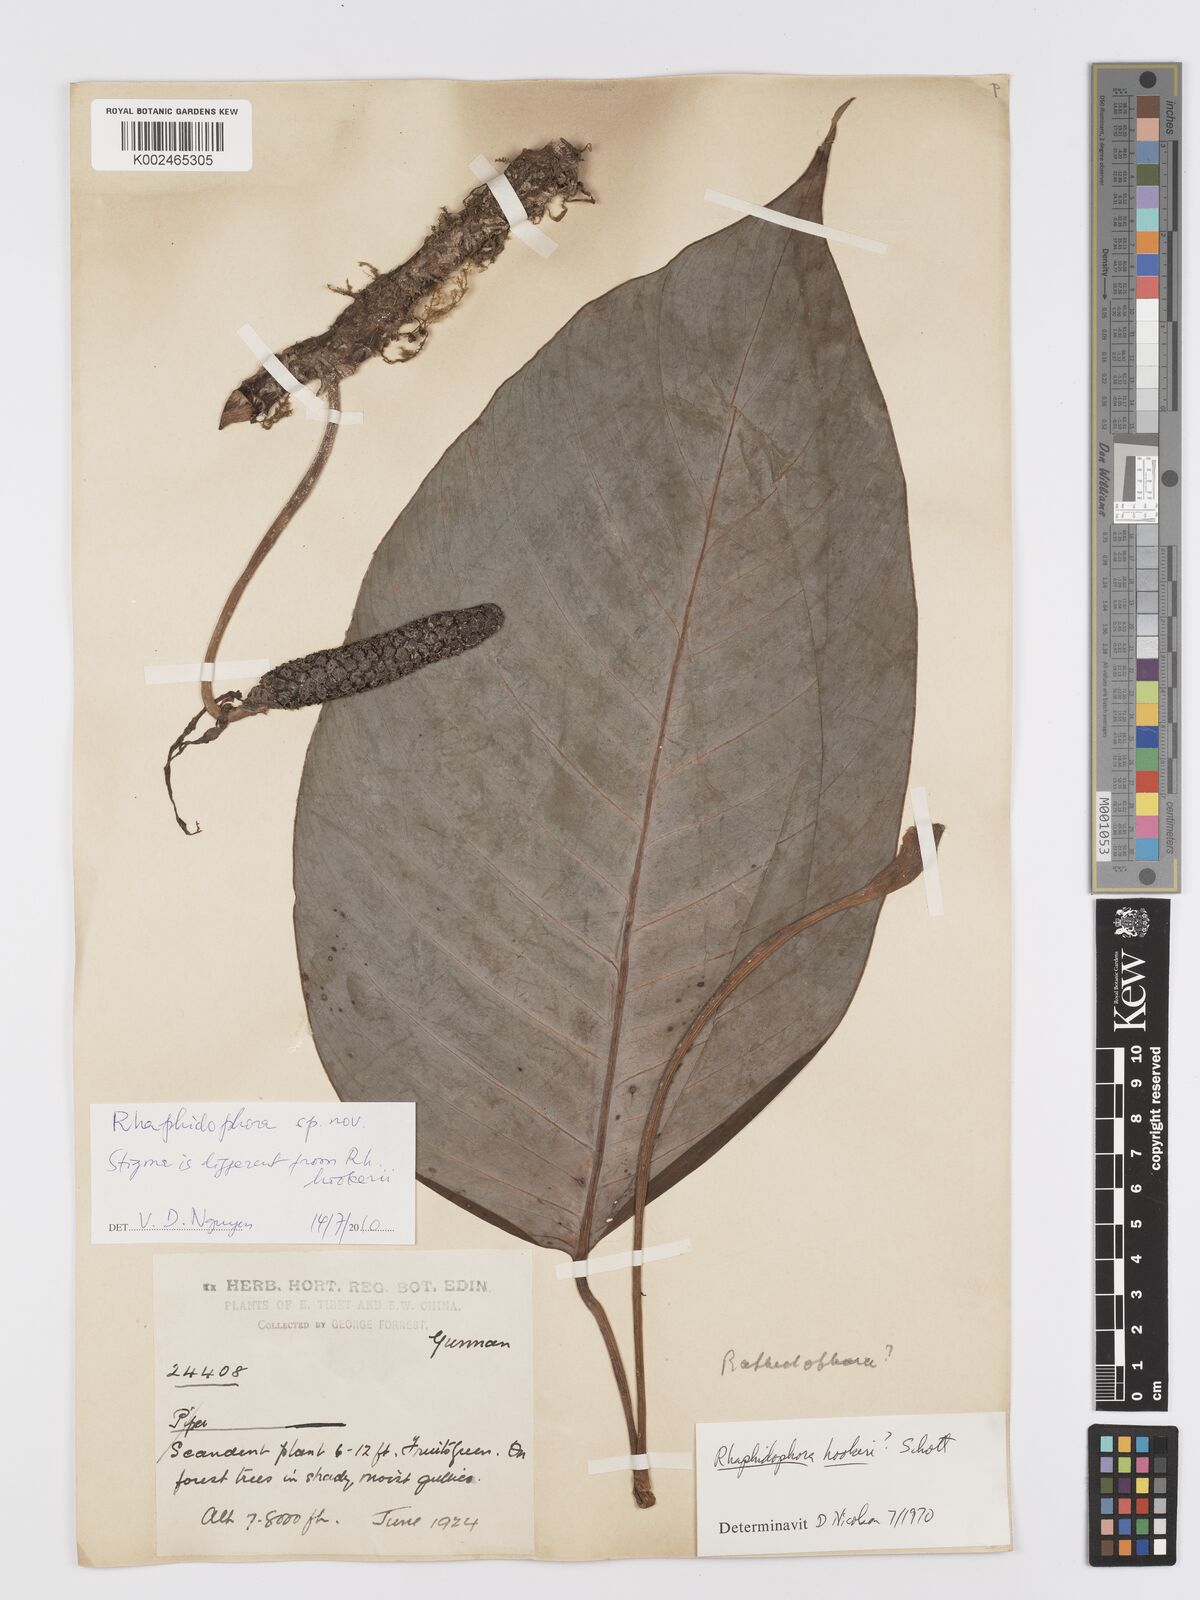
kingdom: Plantae
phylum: Tracheophyta
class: Liliopsida
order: Alismatales
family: Araceae
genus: Rhaphidophora
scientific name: Rhaphidophora
